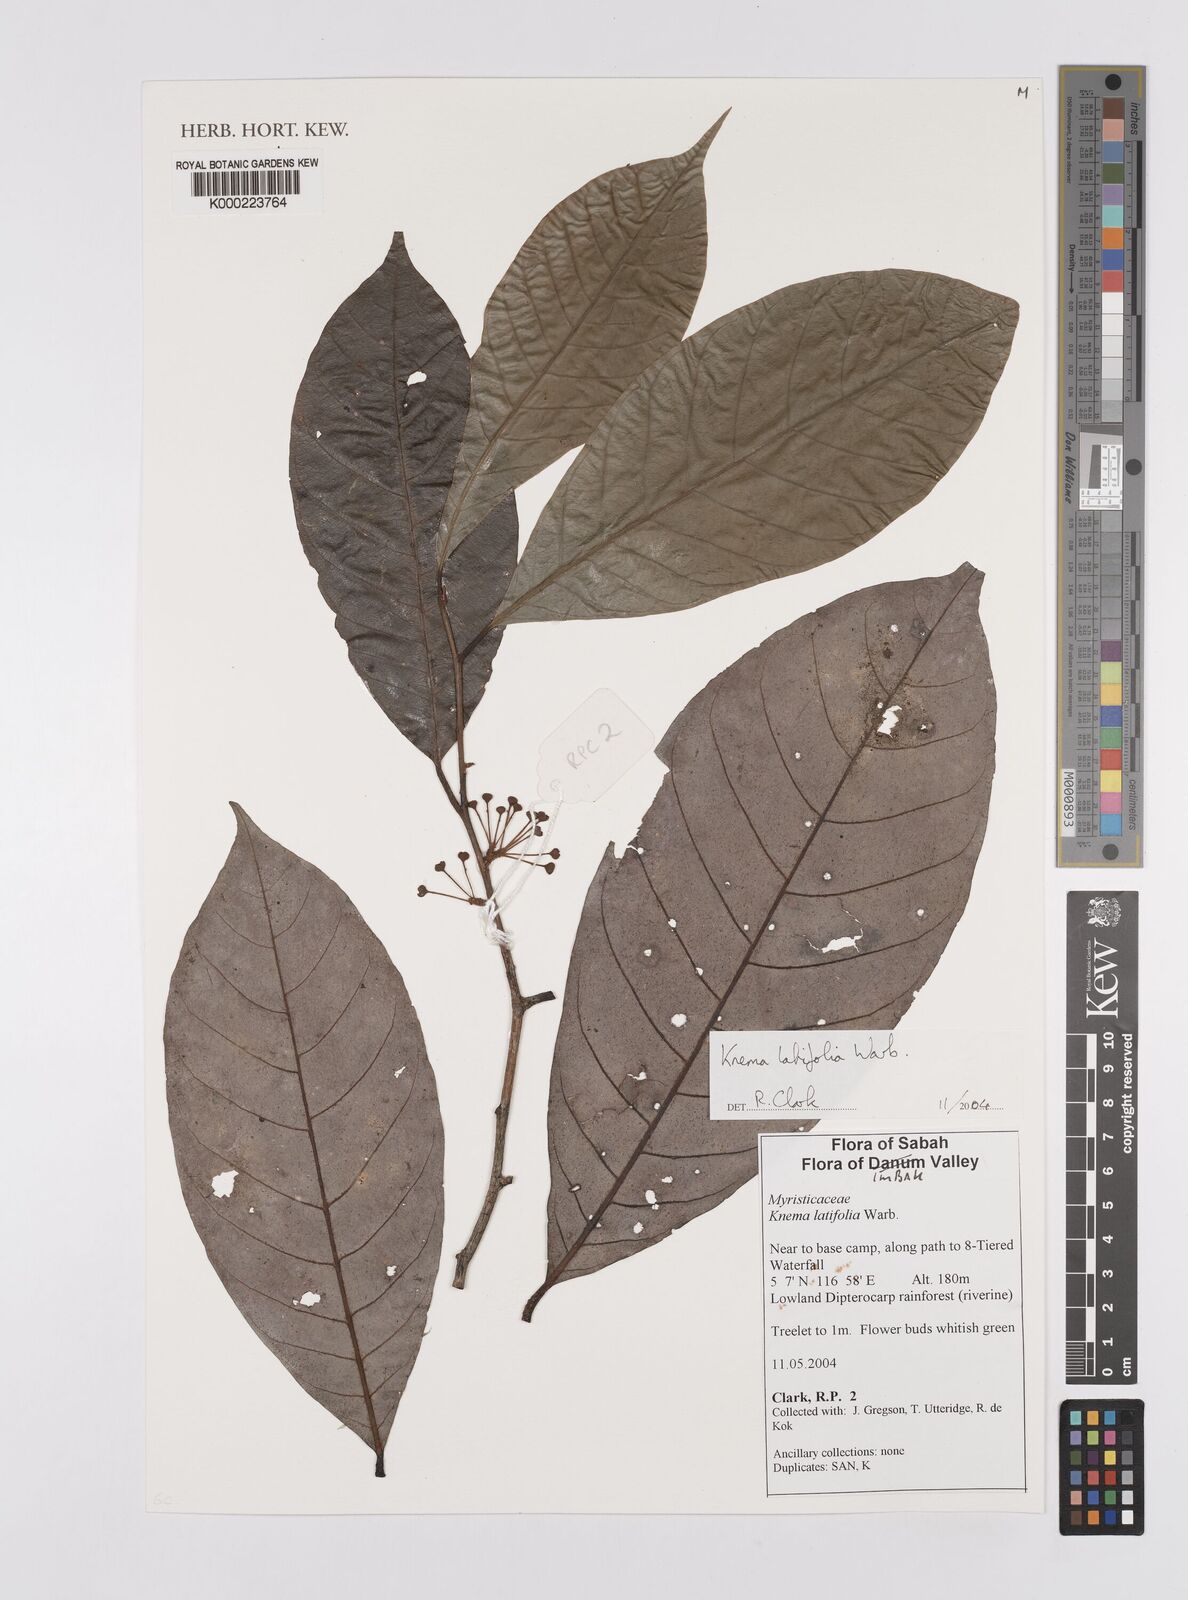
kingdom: Plantae
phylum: Tracheophyta
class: Magnoliopsida
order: Magnoliales
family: Myristicaceae
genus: Knema
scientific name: Knema latifolia
